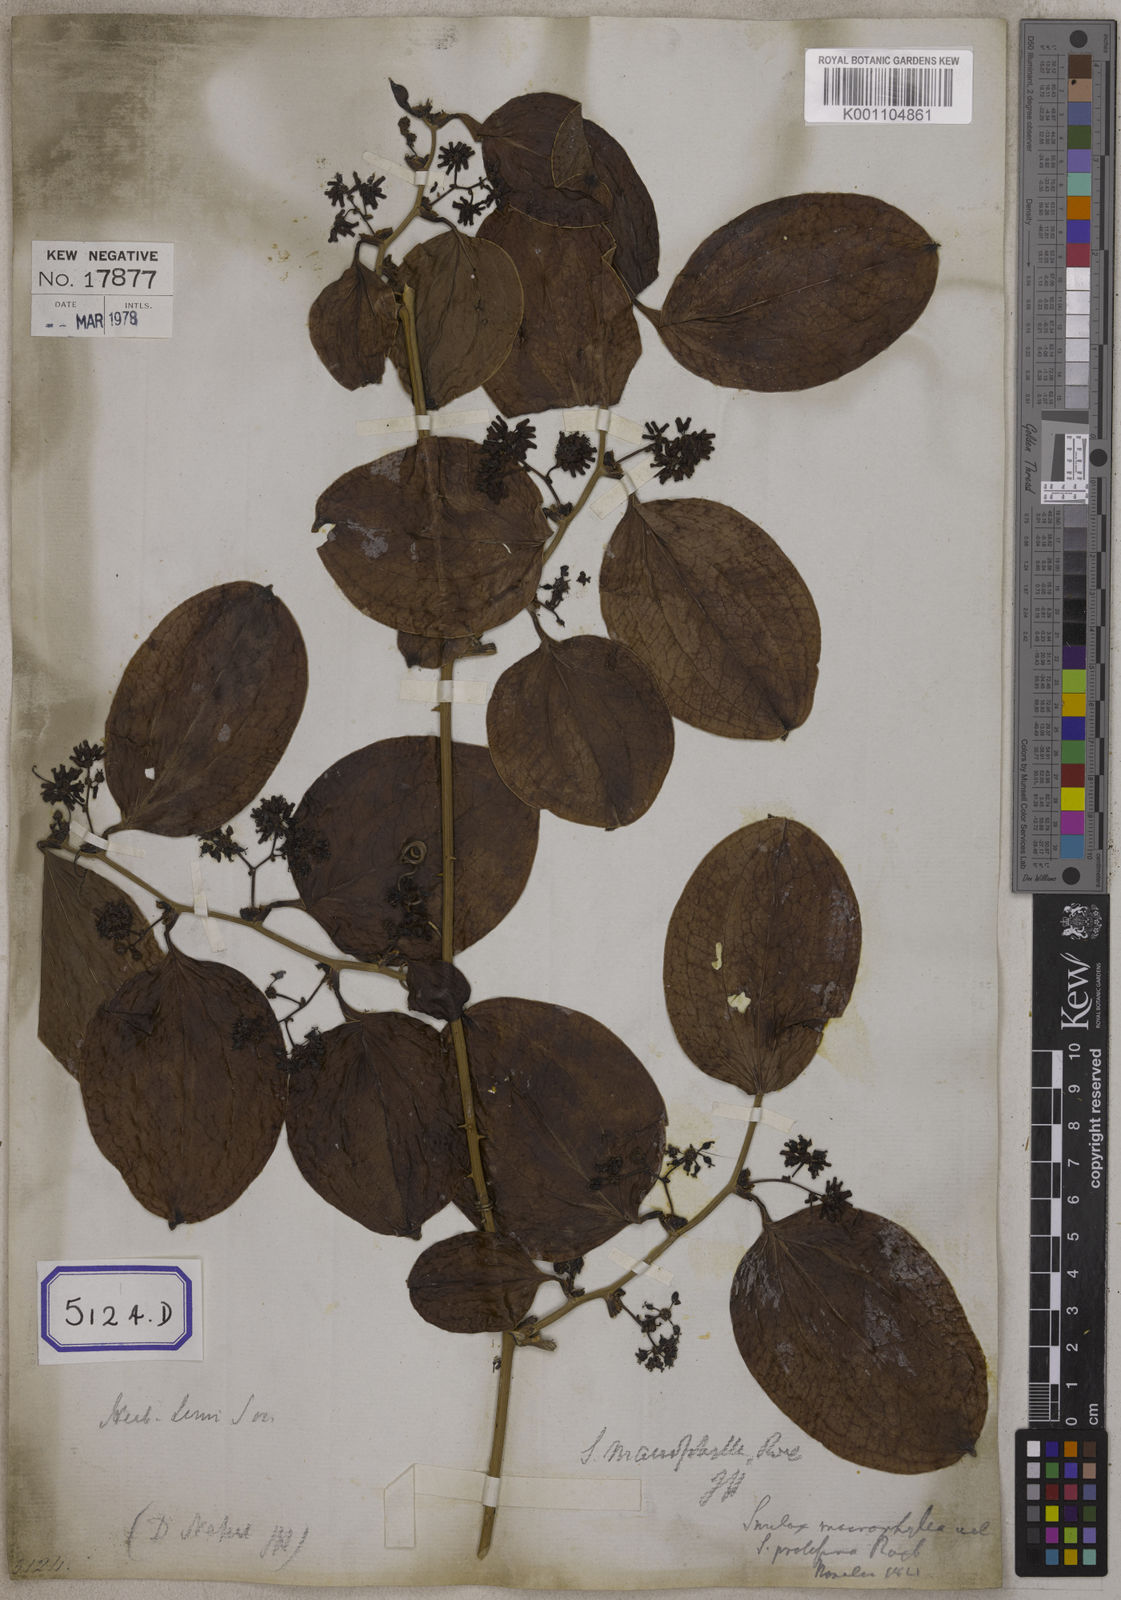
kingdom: Plantae
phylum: Tracheophyta
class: Liliopsida
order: Liliales
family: Smilacaceae
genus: Smilax
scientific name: Smilax prolifera
